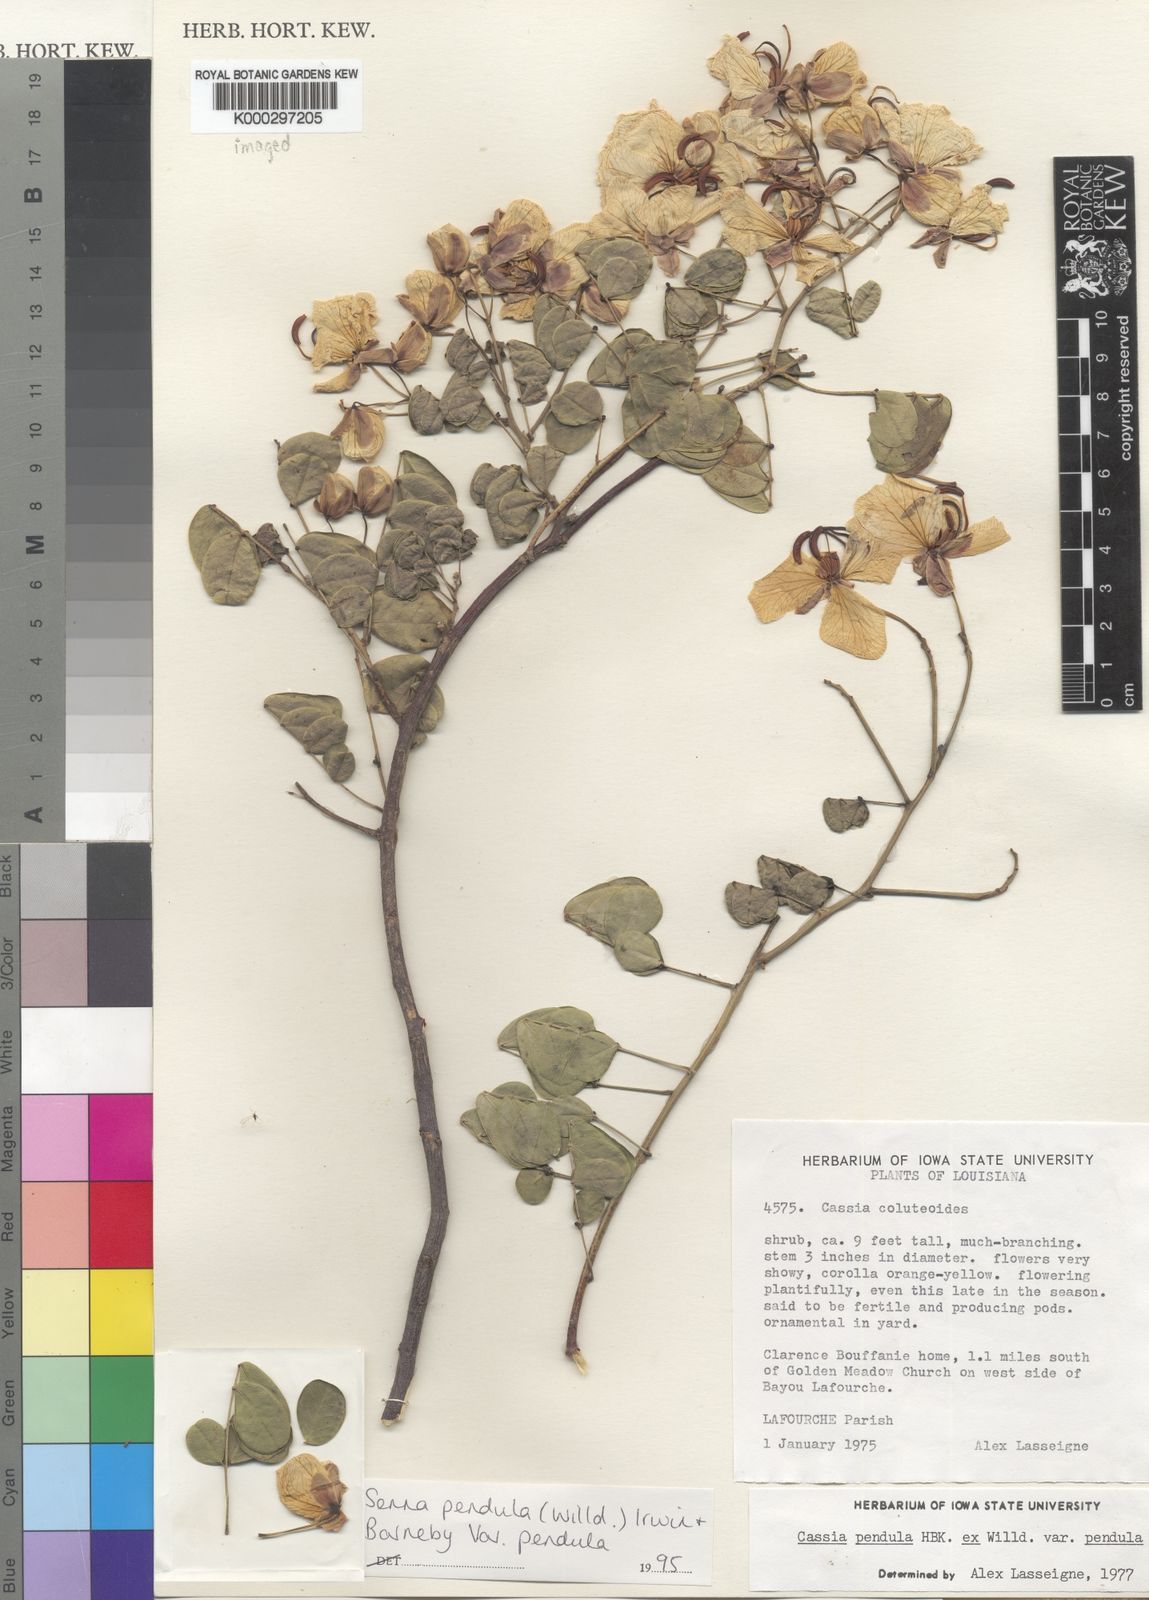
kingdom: Plantae
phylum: Tracheophyta
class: Magnoliopsida
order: Fabales
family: Fabaceae
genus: Senna
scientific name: Senna pendula
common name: Easter cassia
